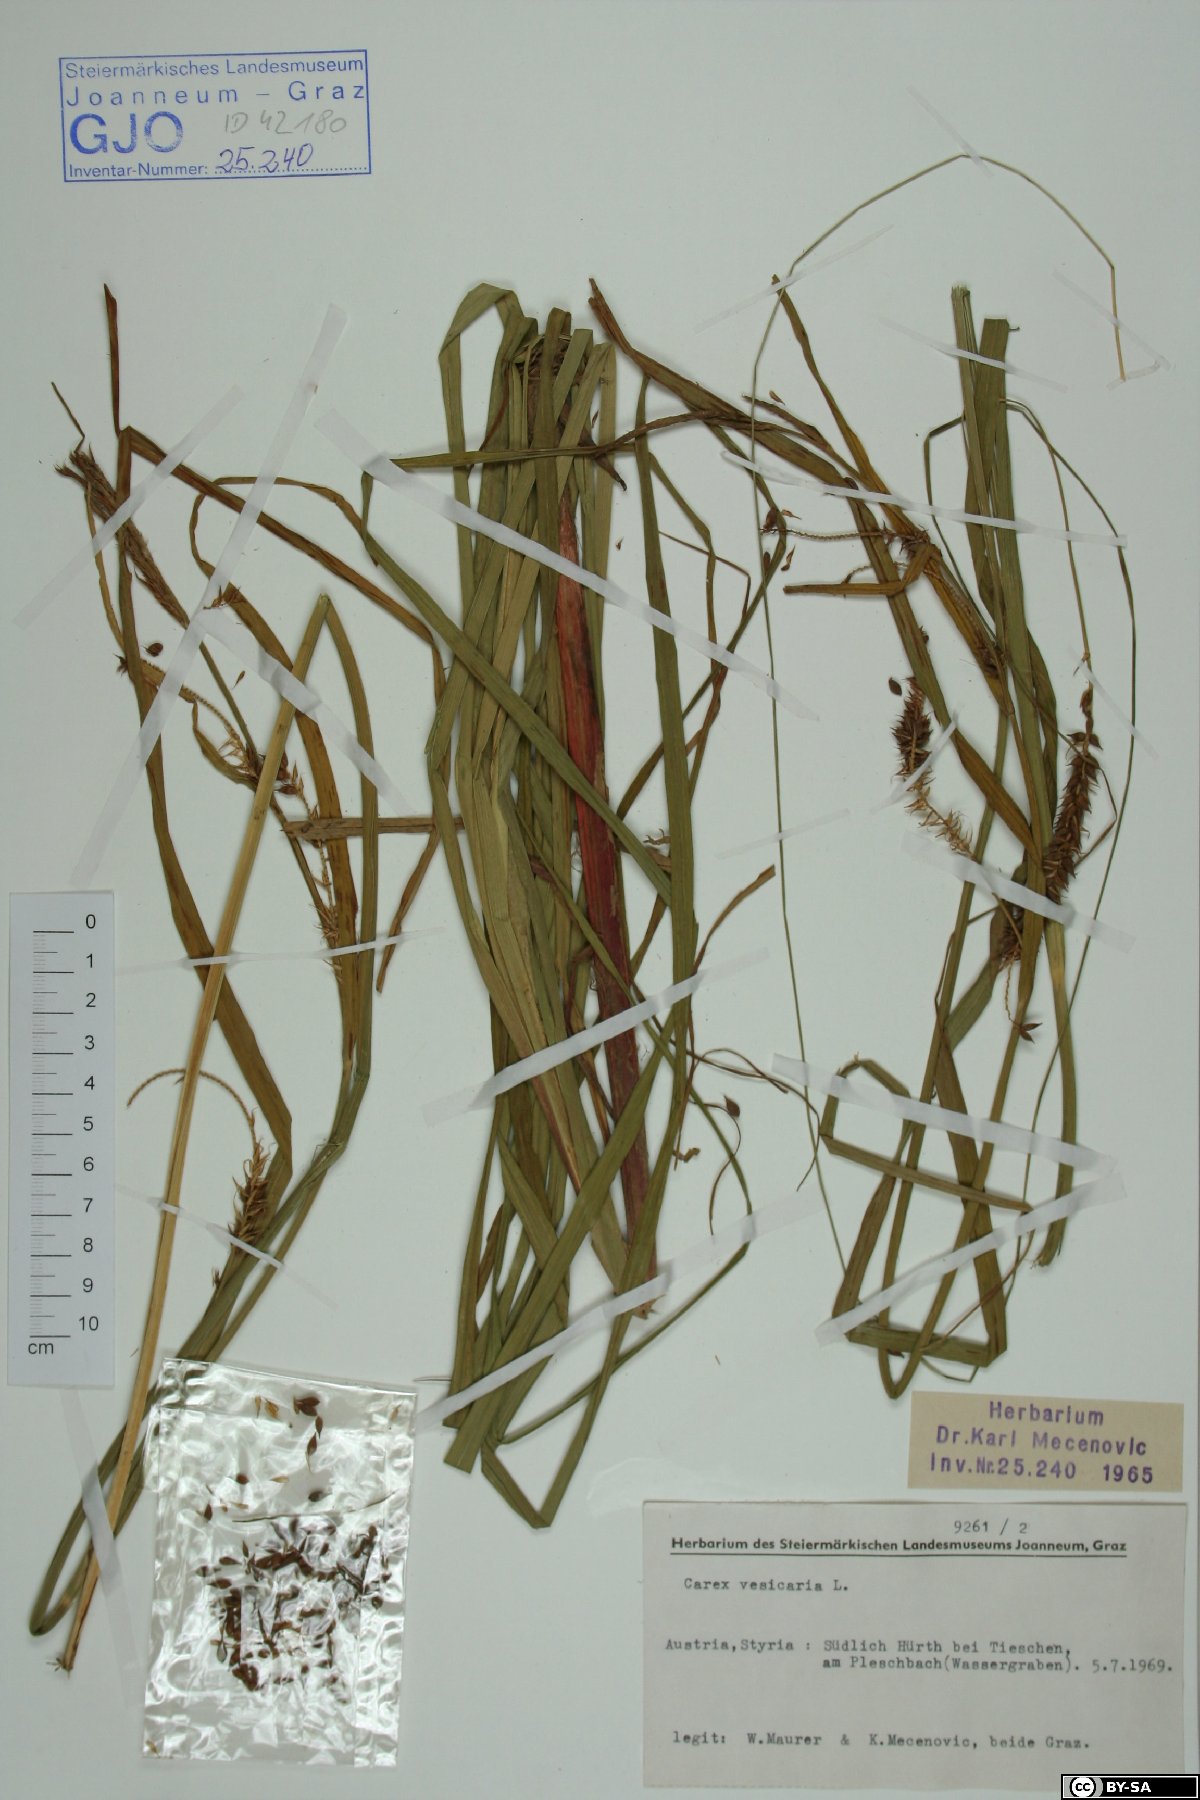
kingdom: Plantae
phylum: Tracheophyta
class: Liliopsida
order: Poales
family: Cyperaceae
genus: Carex
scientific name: Carex vesicaria
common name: Bladder-sedge
